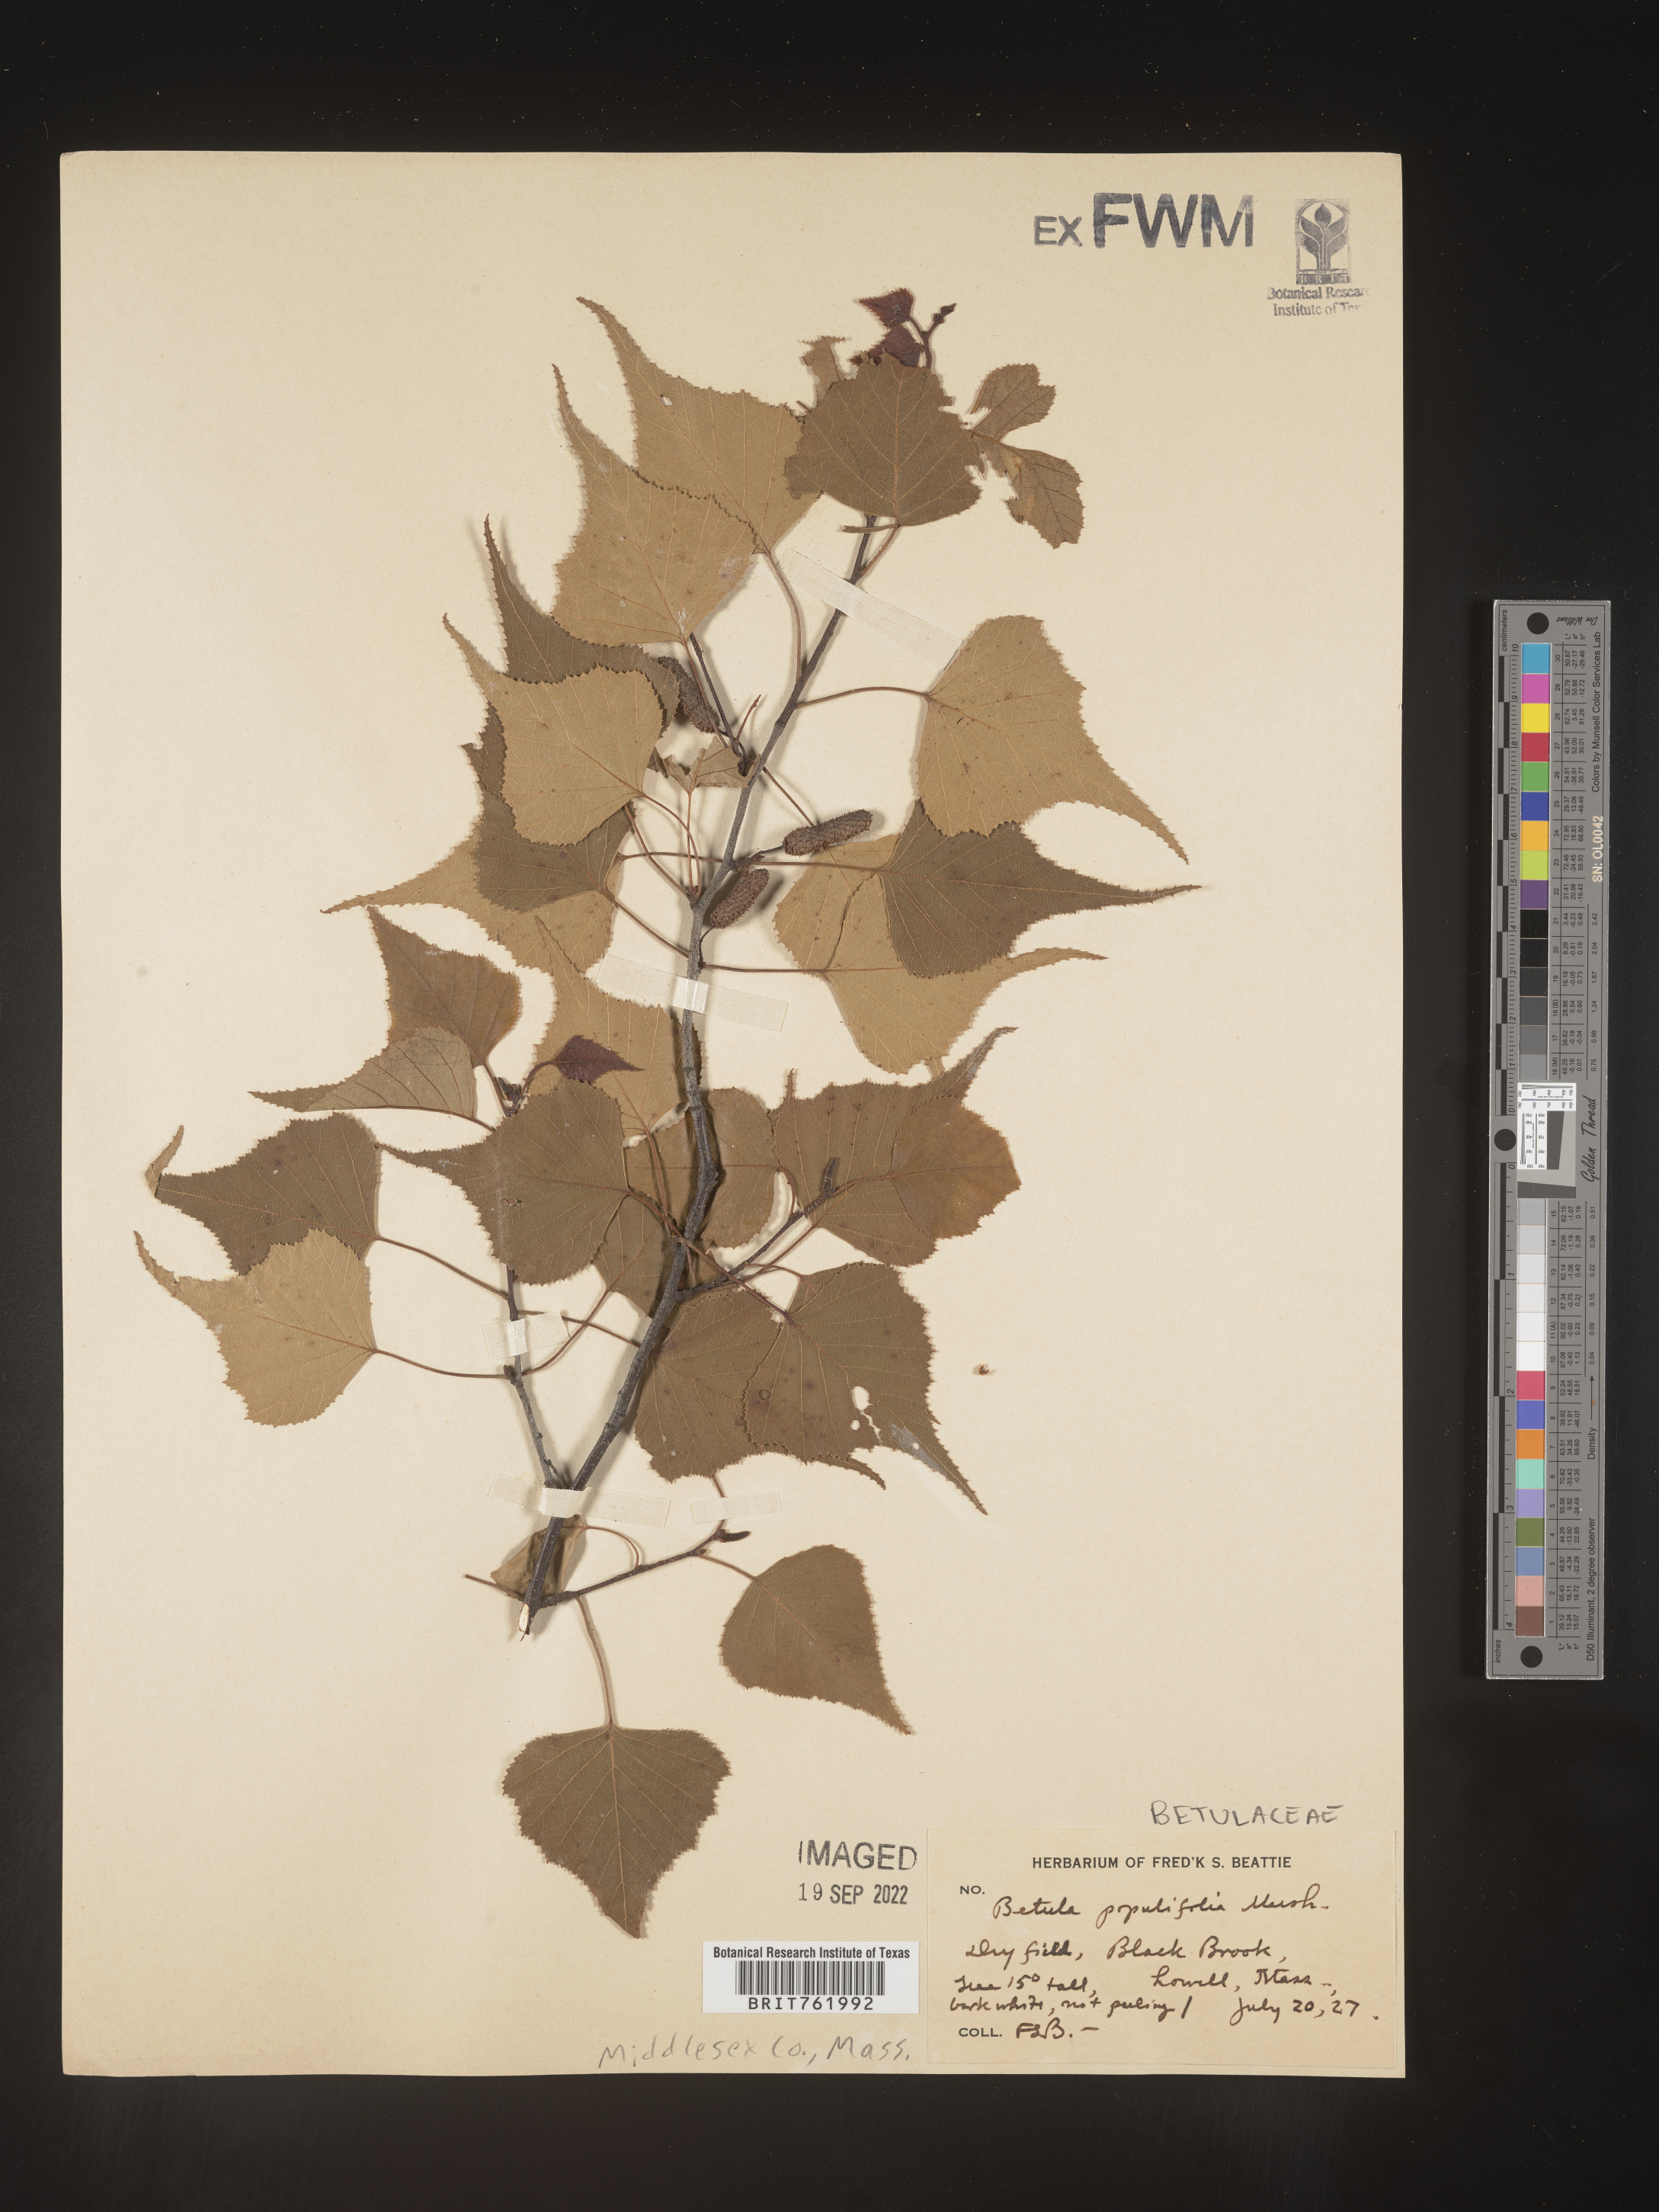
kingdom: Plantae
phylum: Tracheophyta
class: Magnoliopsida
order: Fagales
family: Betulaceae
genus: Betula
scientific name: Betula populifolia
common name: Fire birch
